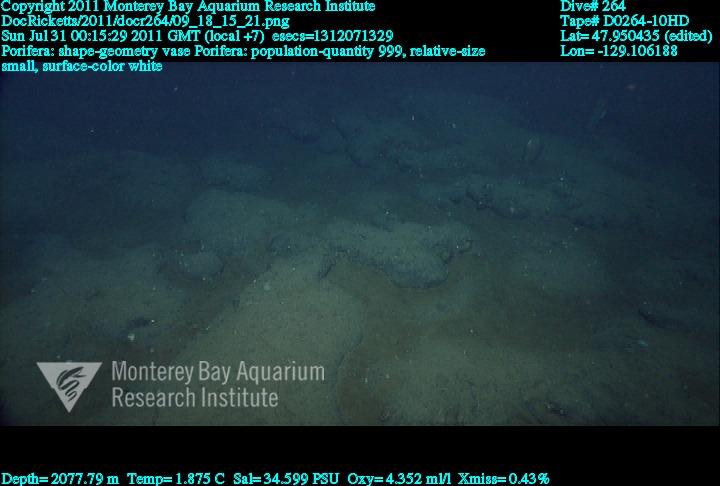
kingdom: Animalia
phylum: Porifera
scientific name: Porifera
